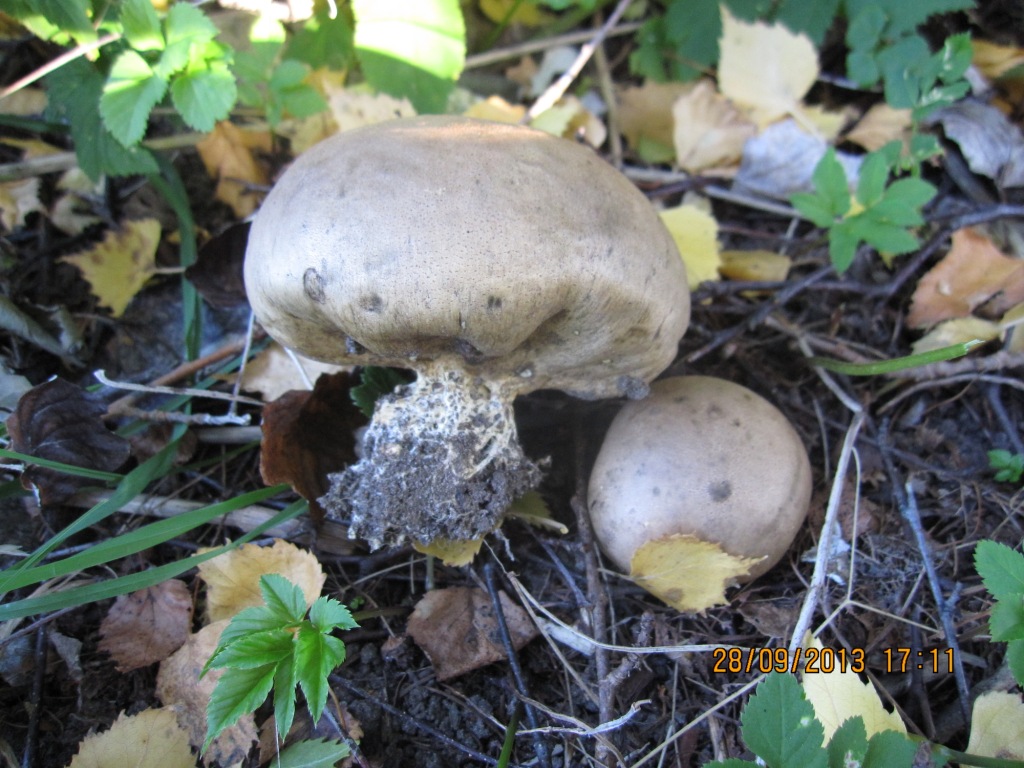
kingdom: Fungi
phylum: Basidiomycota
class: Agaricomycetes
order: Boletales
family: Sclerodermataceae
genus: Scleroderma
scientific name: Scleroderma bovista
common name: bovist-bruskbold
